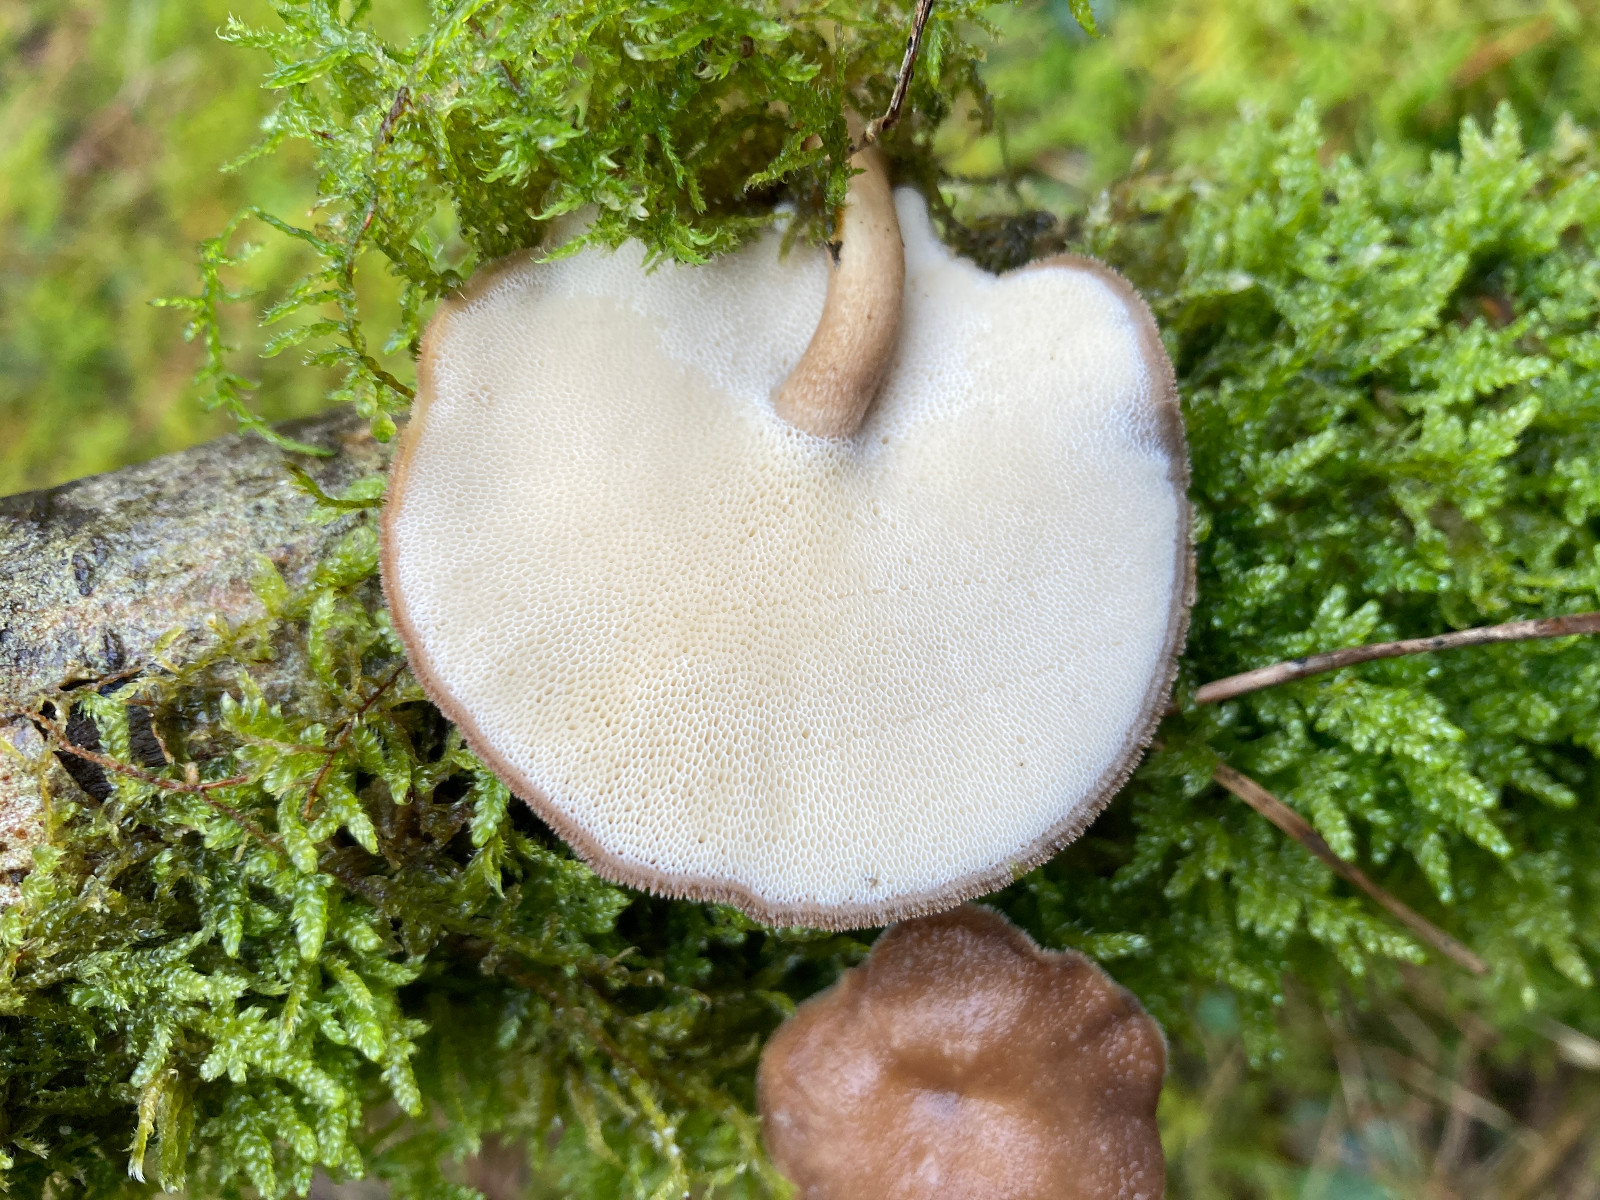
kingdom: Fungi
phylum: Basidiomycota
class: Agaricomycetes
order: Polyporales
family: Polyporaceae
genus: Lentinus
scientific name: Lentinus brumalis
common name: vinter-stilkporesvamp
